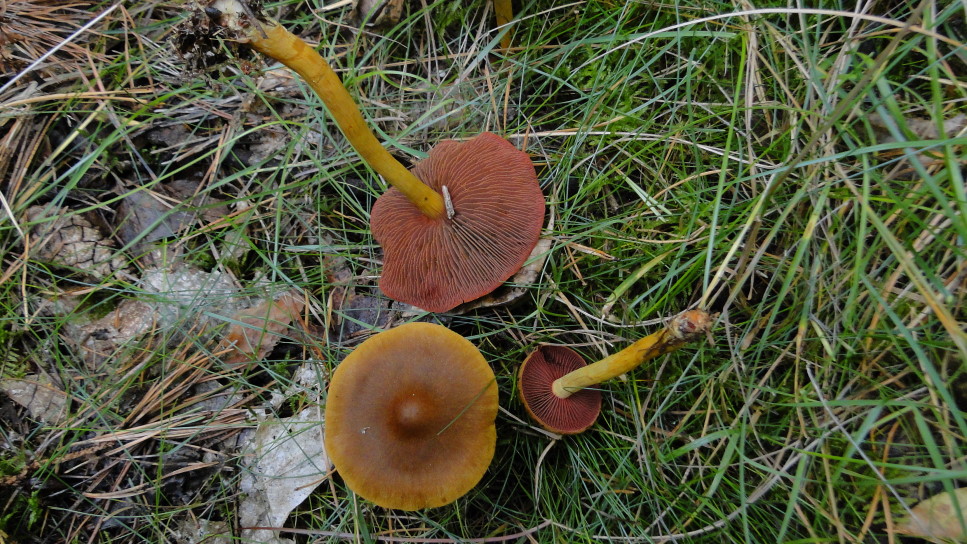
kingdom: Fungi
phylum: Basidiomycota
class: Agaricomycetes
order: Agaricales
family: Cortinariaceae
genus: Cortinarius
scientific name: Cortinarius
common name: cinnoberbladet slørhat
